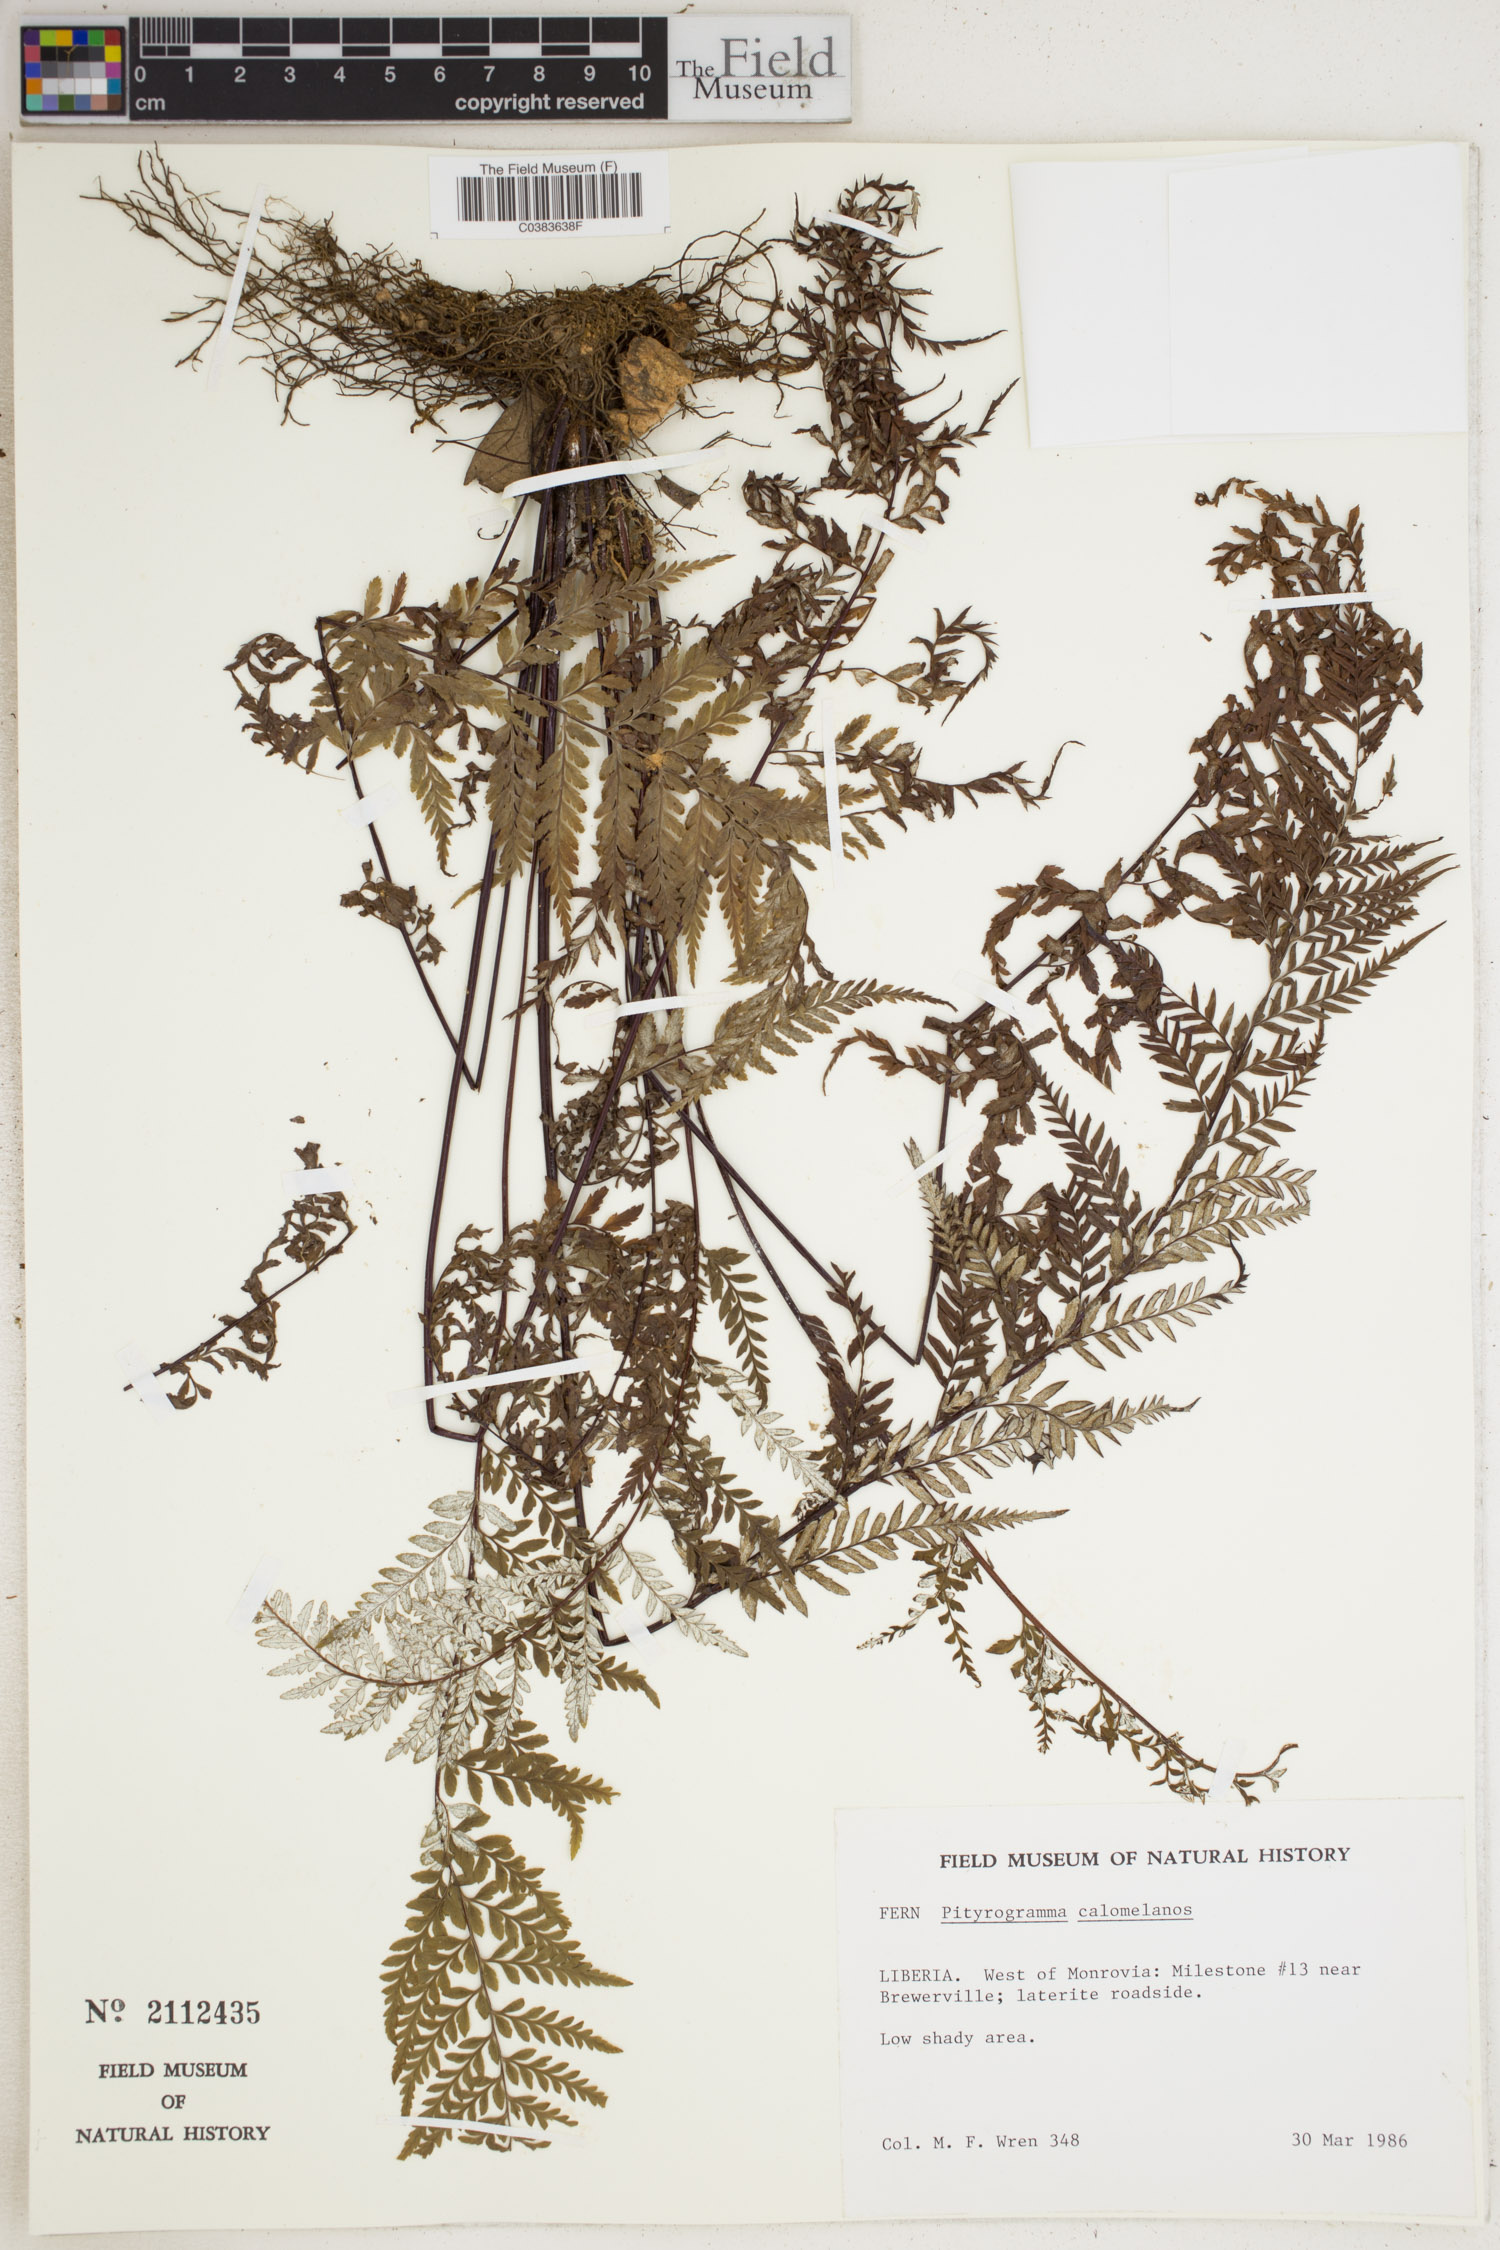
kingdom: Plantae
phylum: Tracheophyta
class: Polypodiopsida
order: Polypodiales
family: Pteridaceae
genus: Pityrogramma
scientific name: Pityrogramma calomelanos
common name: Dixie silverback fern
